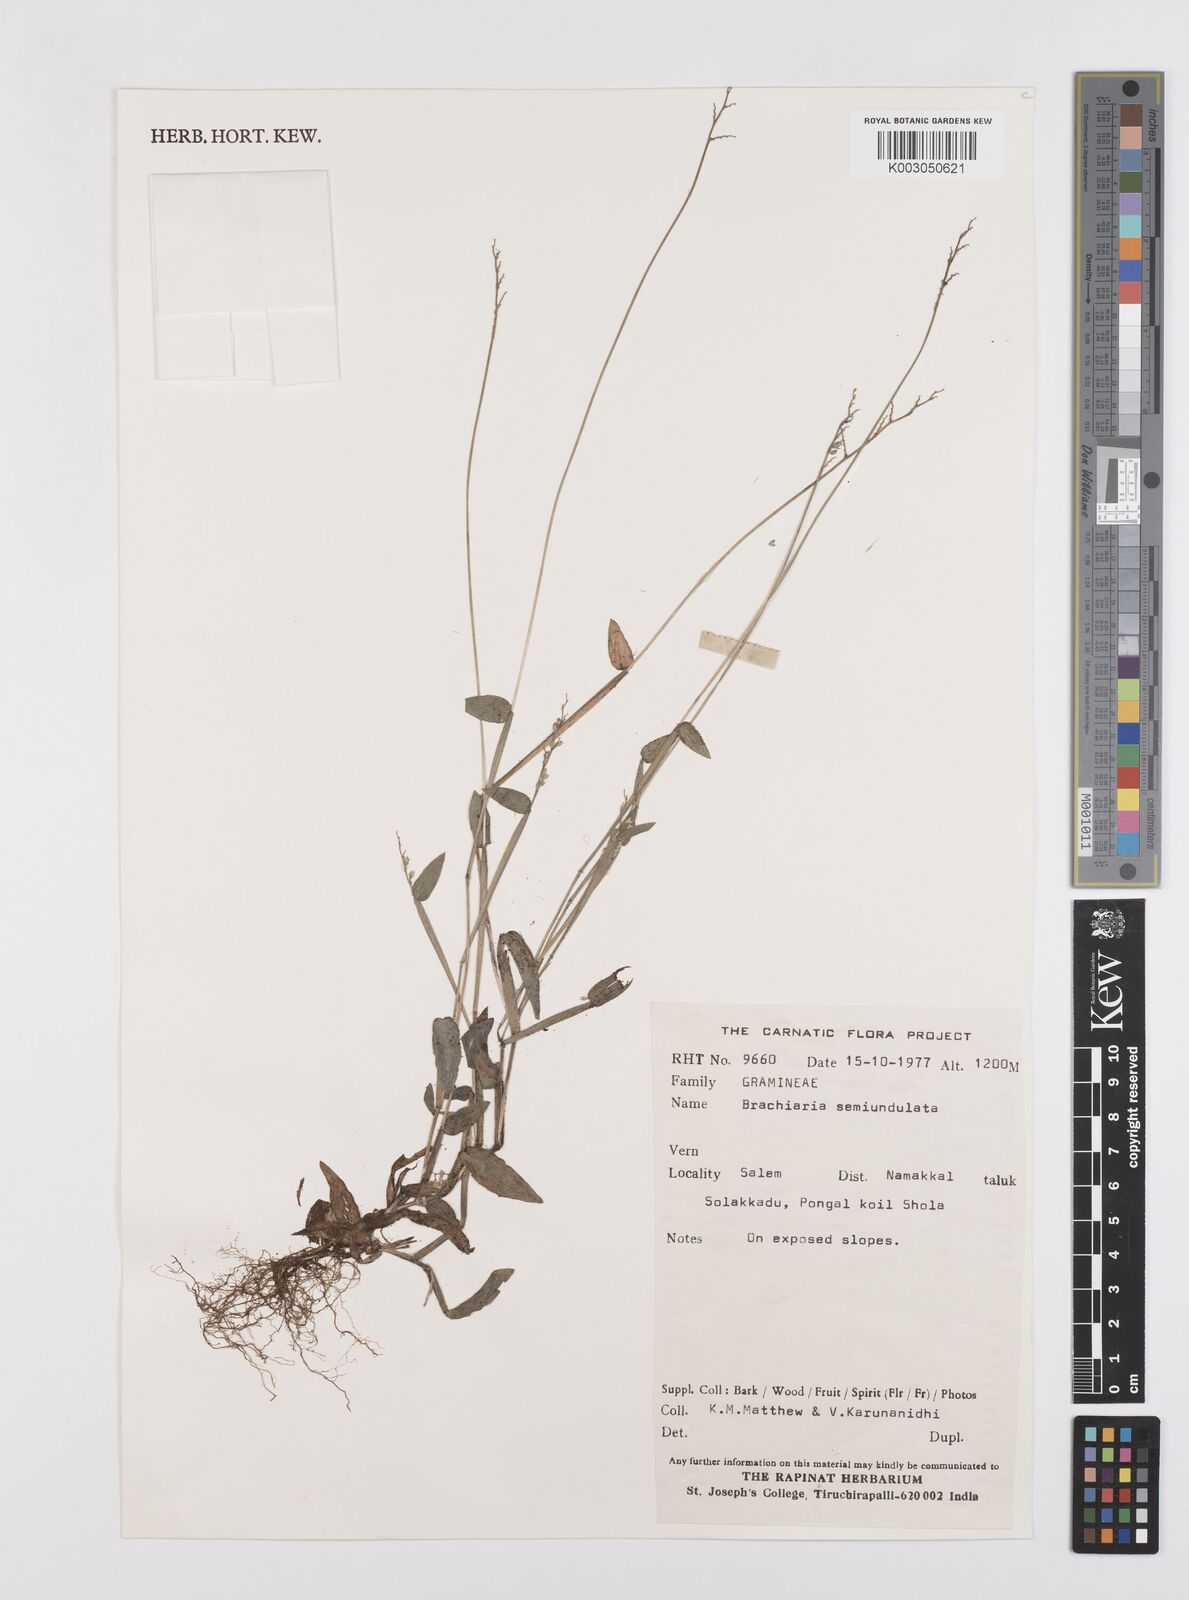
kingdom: Plantae
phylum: Tracheophyta
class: Liliopsida
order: Poales
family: Poaceae
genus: Urochloa
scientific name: Urochloa semiundulata
